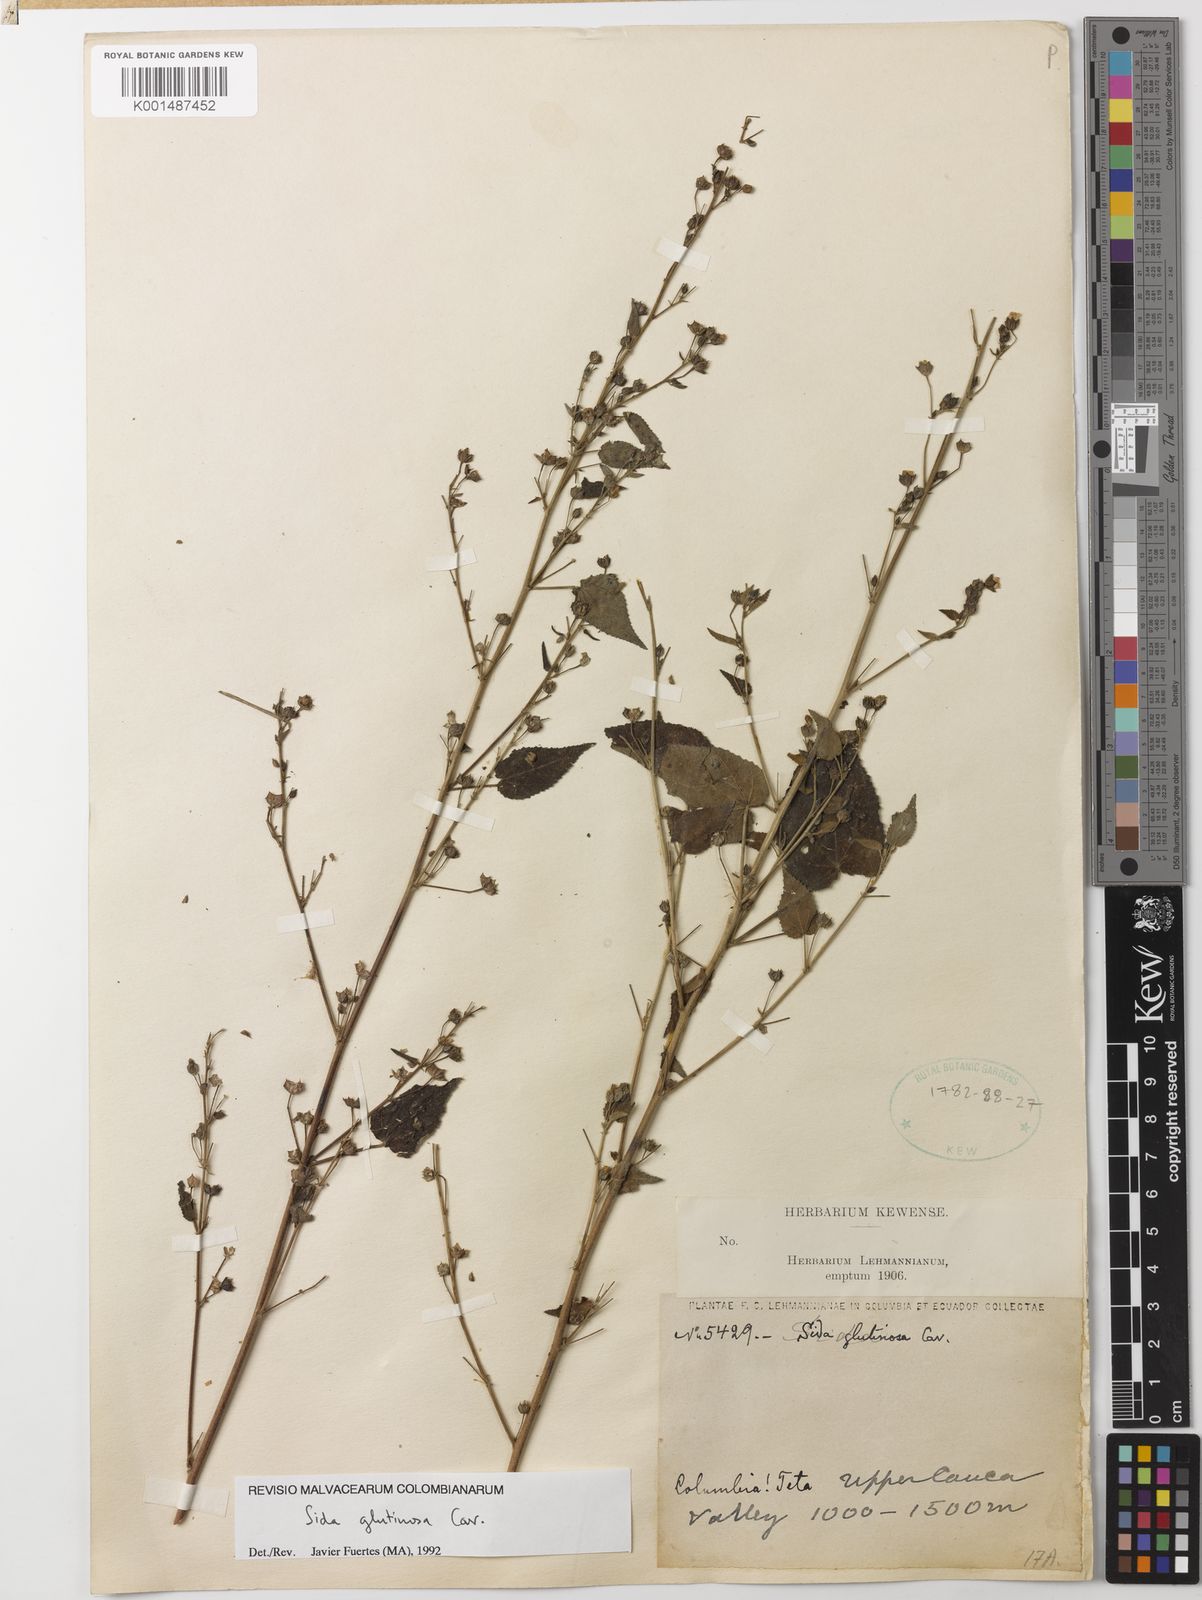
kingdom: Plantae
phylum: Tracheophyta
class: Magnoliopsida
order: Malvales
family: Malvaceae
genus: Sida
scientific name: Sida glutinosa
